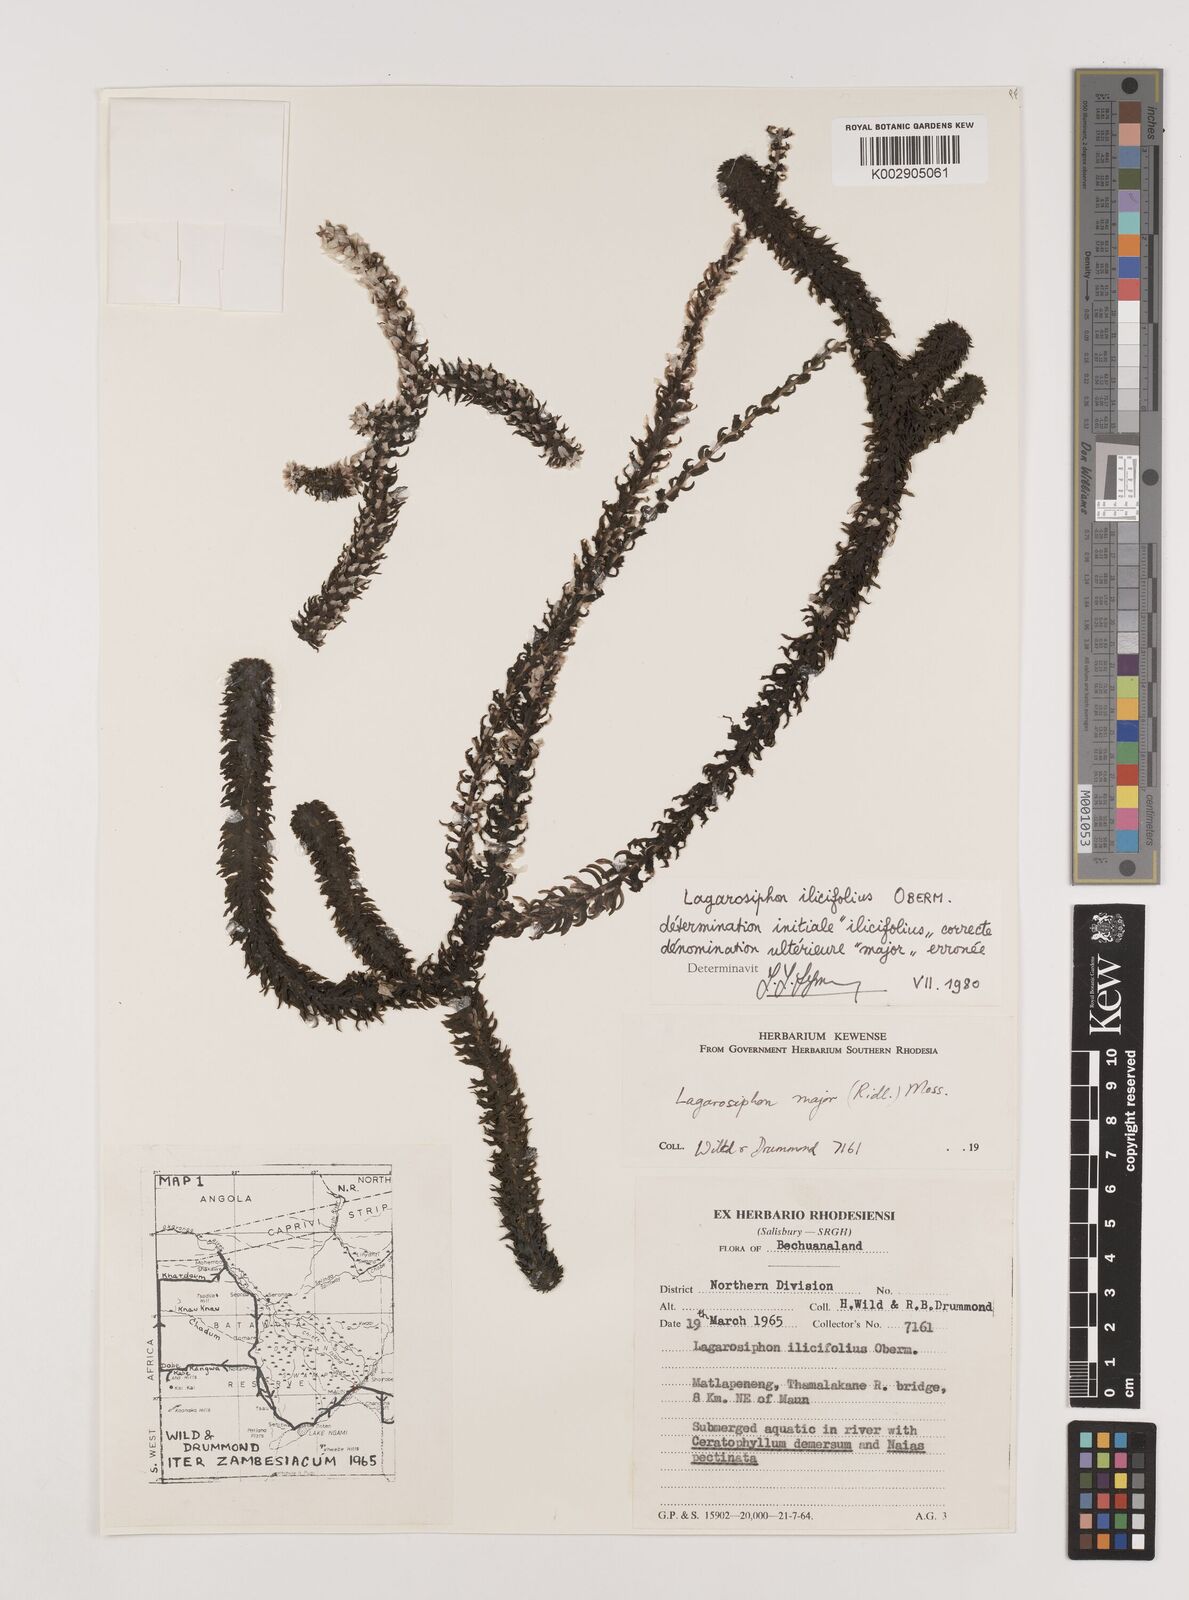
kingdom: Plantae
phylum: Tracheophyta
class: Liliopsida
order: Alismatales
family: Hydrocharitaceae
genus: Lagarosiphon
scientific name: Lagarosiphon ilicifolius
